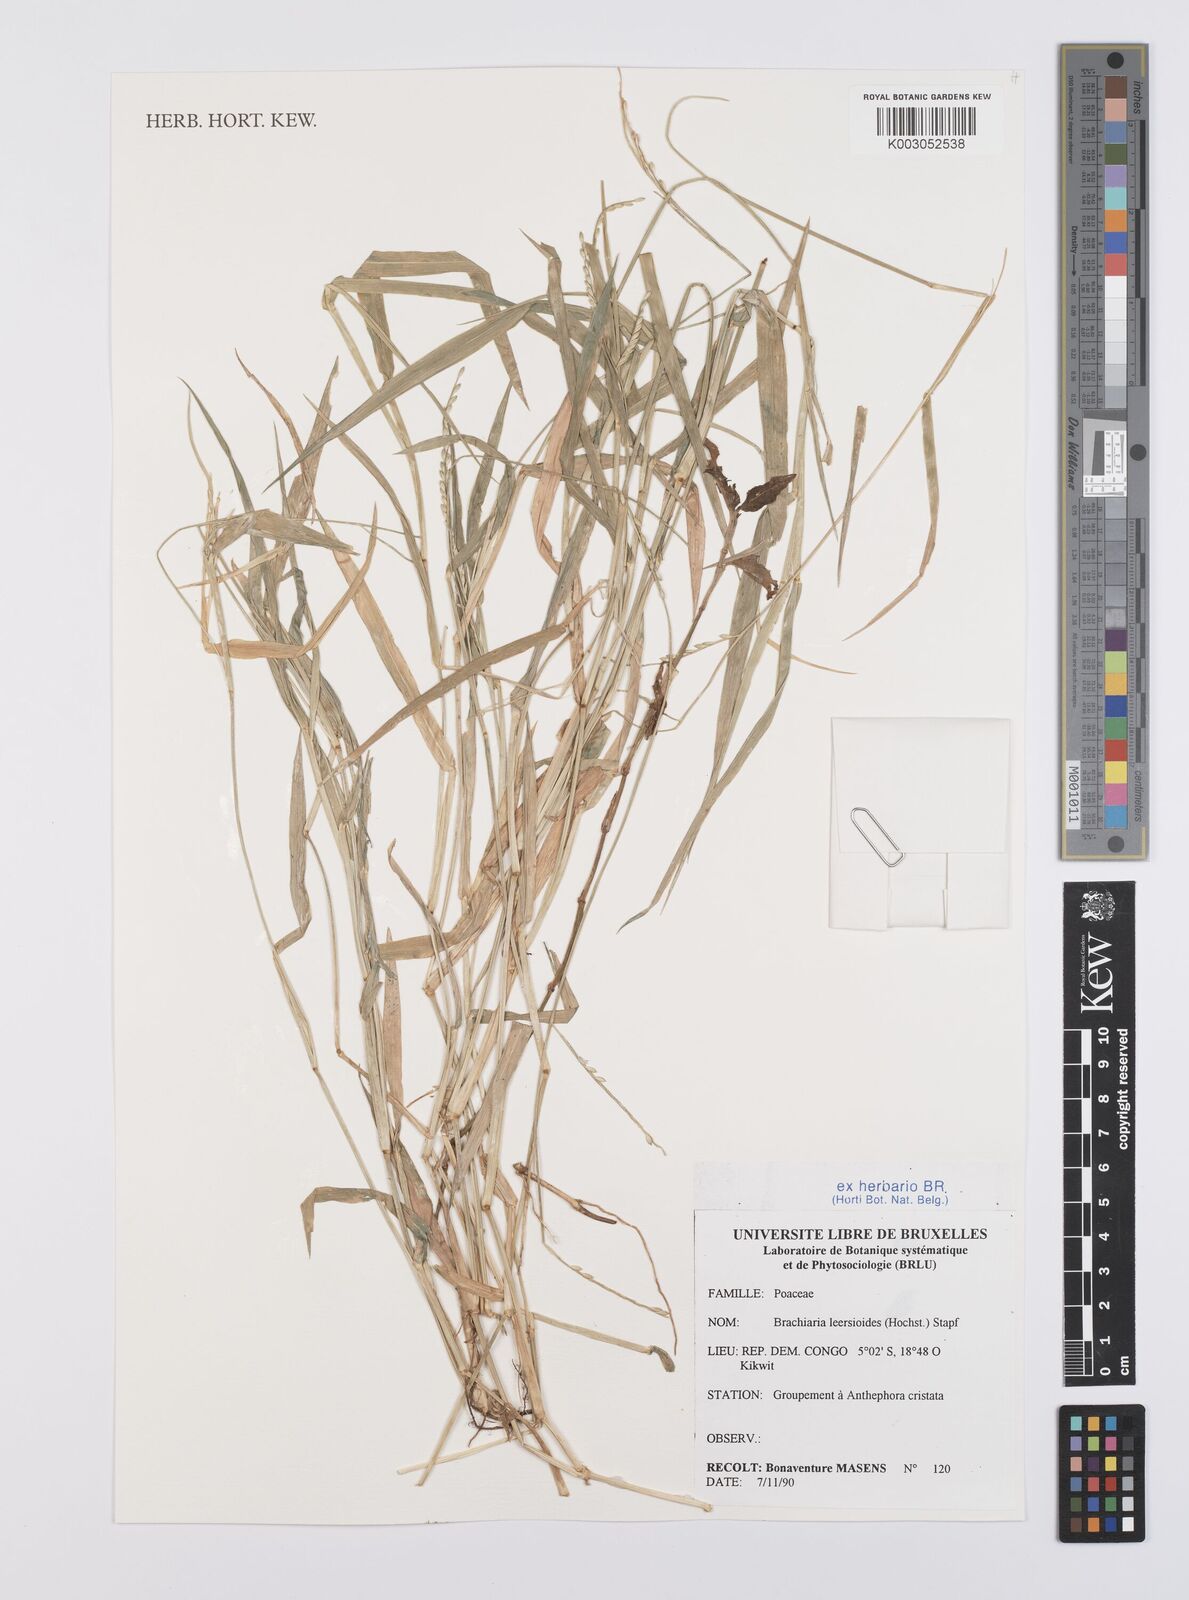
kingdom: Plantae
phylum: Tracheophyta
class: Liliopsida
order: Poales
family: Poaceae
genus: Urochloa
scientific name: Urochloa leersioides
